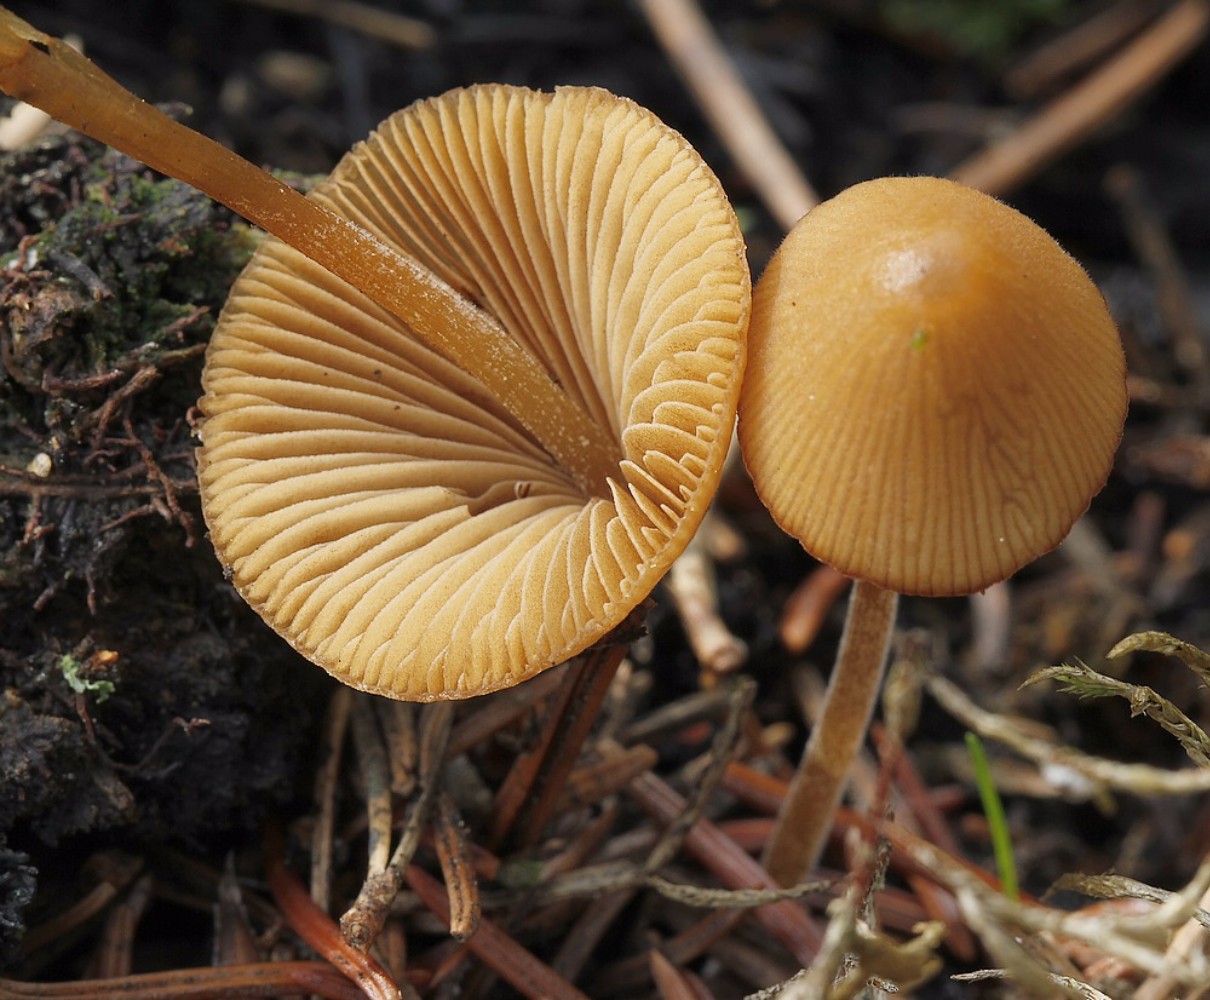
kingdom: Fungi
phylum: Basidiomycota
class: Agaricomycetes
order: Agaricales
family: Bolbitiaceae
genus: Conocybe
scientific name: Conocybe
